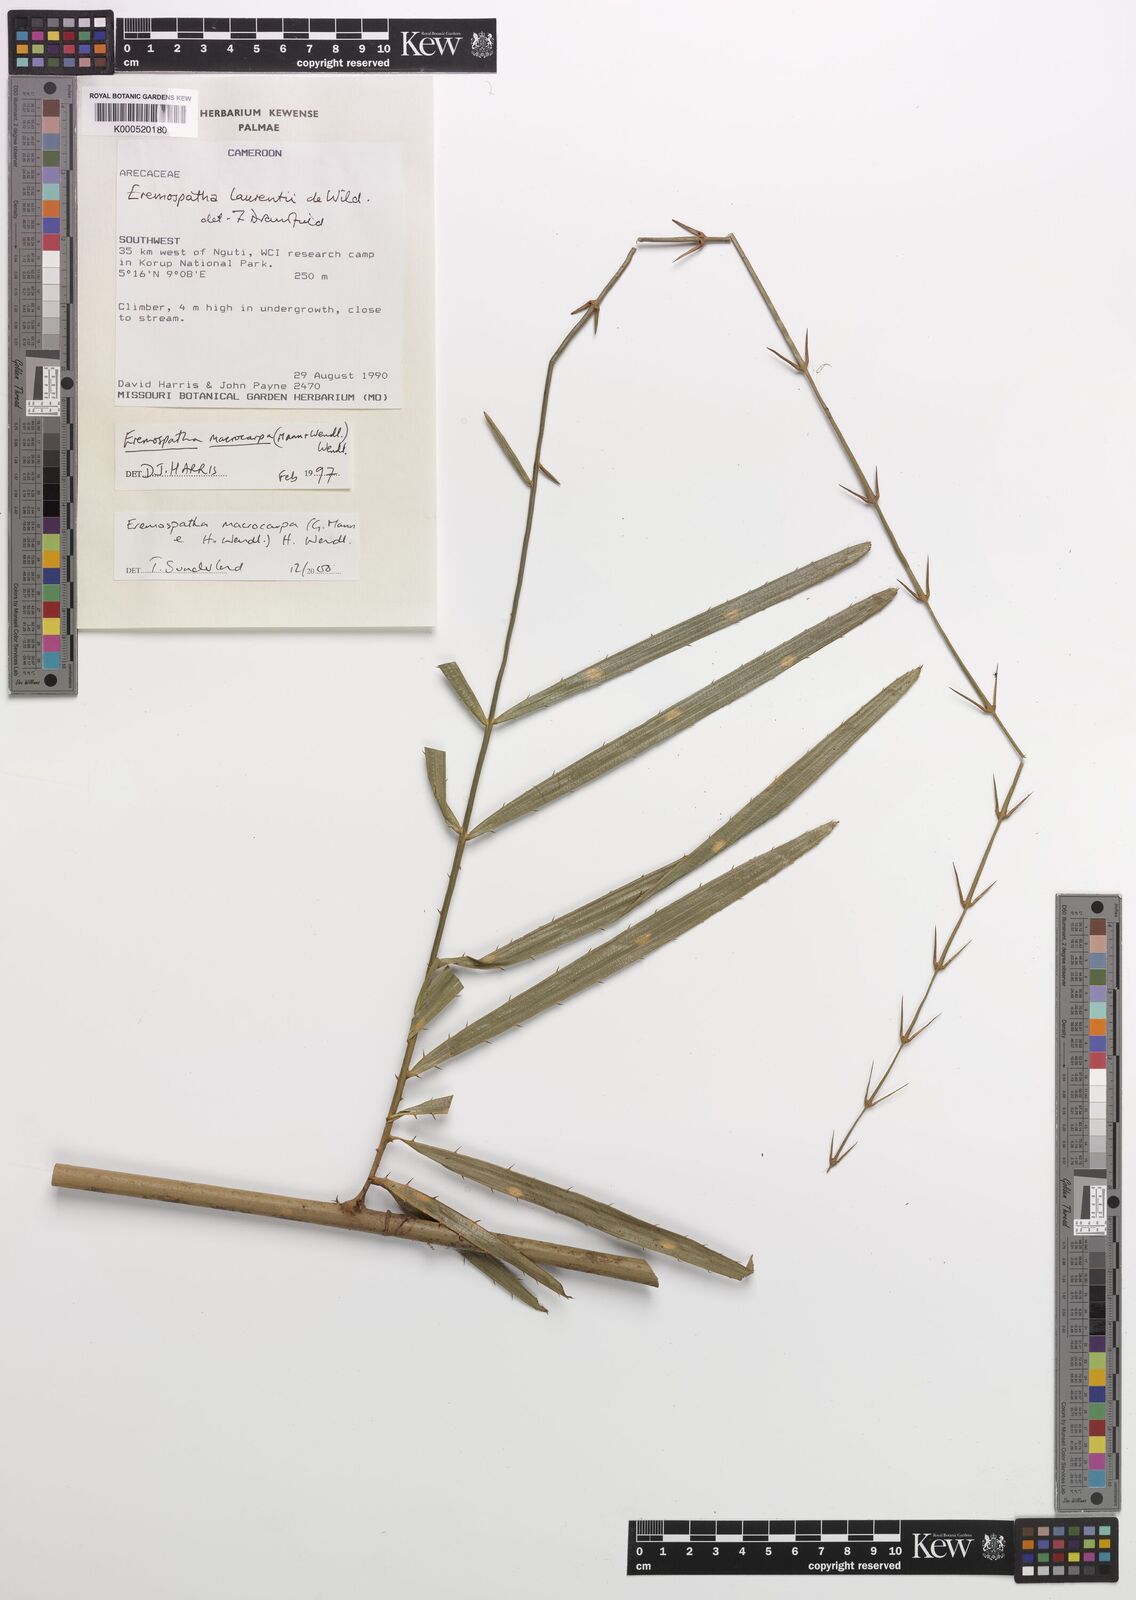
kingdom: Plantae
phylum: Tracheophyta
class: Liliopsida
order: Arecales
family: Arecaceae
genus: Eremospatha
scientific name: Eremospatha laurentii
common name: Rattan palm
